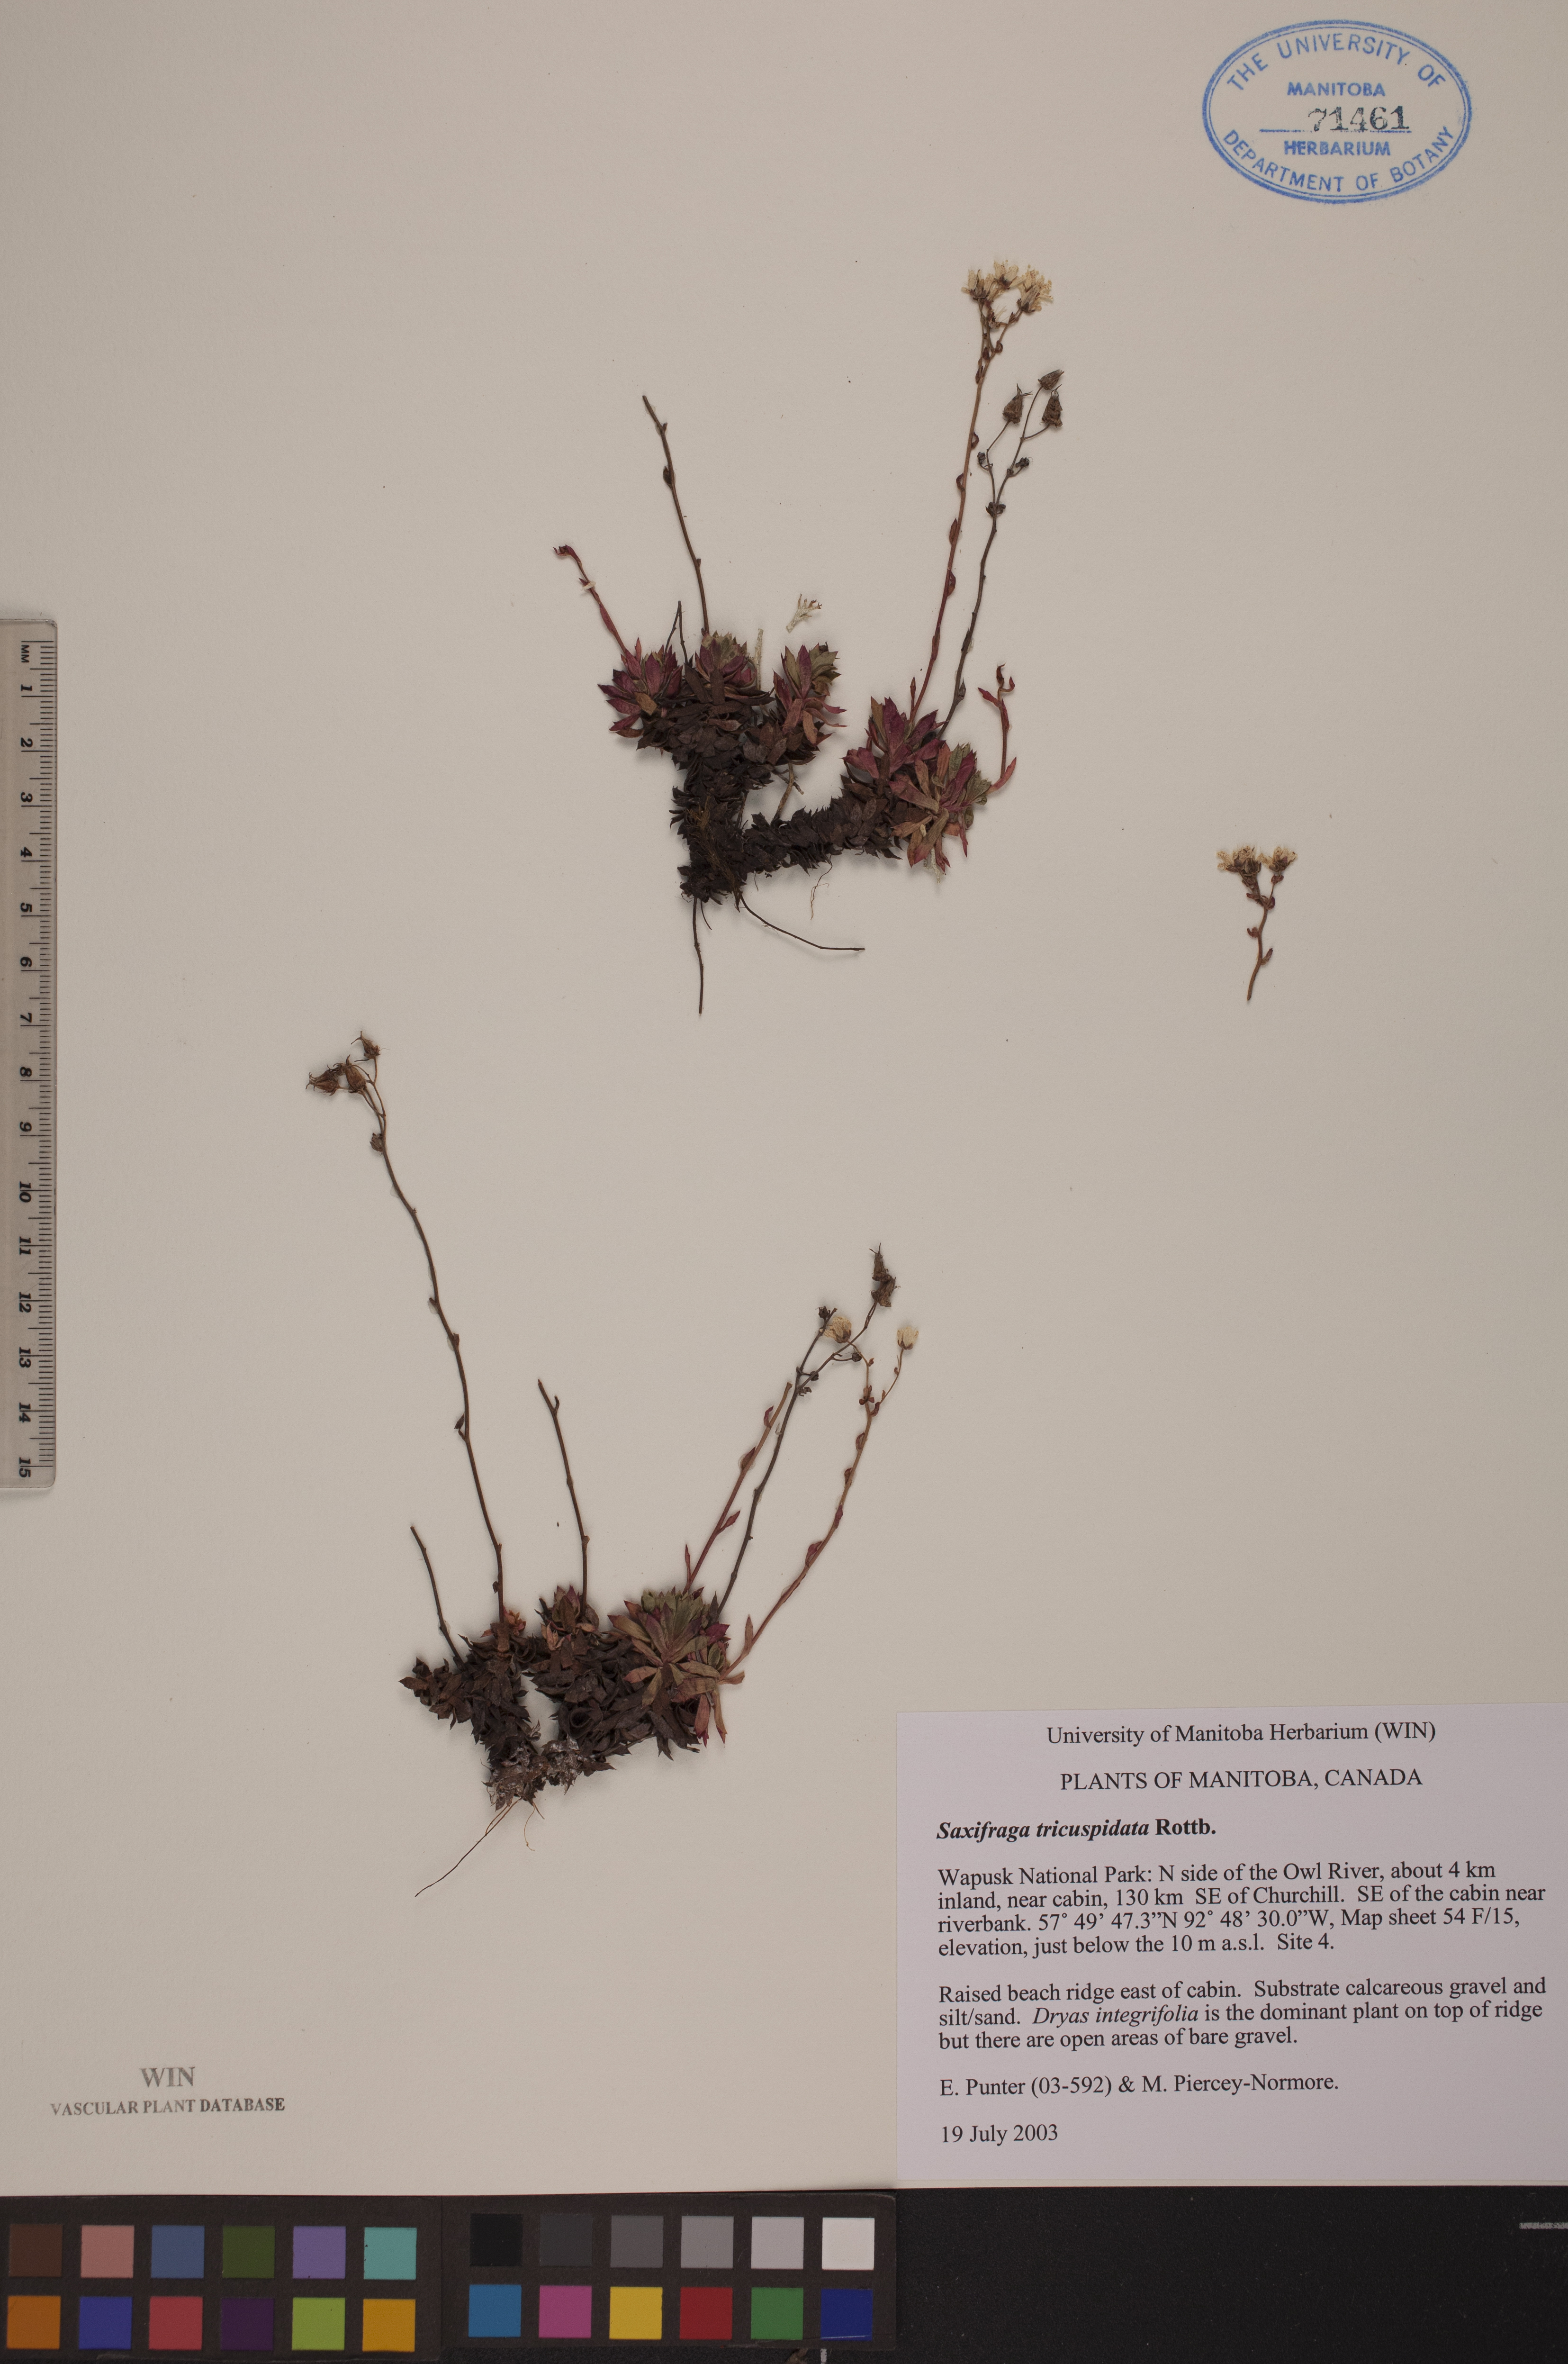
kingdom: Plantae
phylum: Tracheophyta
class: Magnoliopsida
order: Saxifragales
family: Saxifragaceae
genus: Saxifraga
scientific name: Saxifraga tricuspidata
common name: Prickly saxifrage
